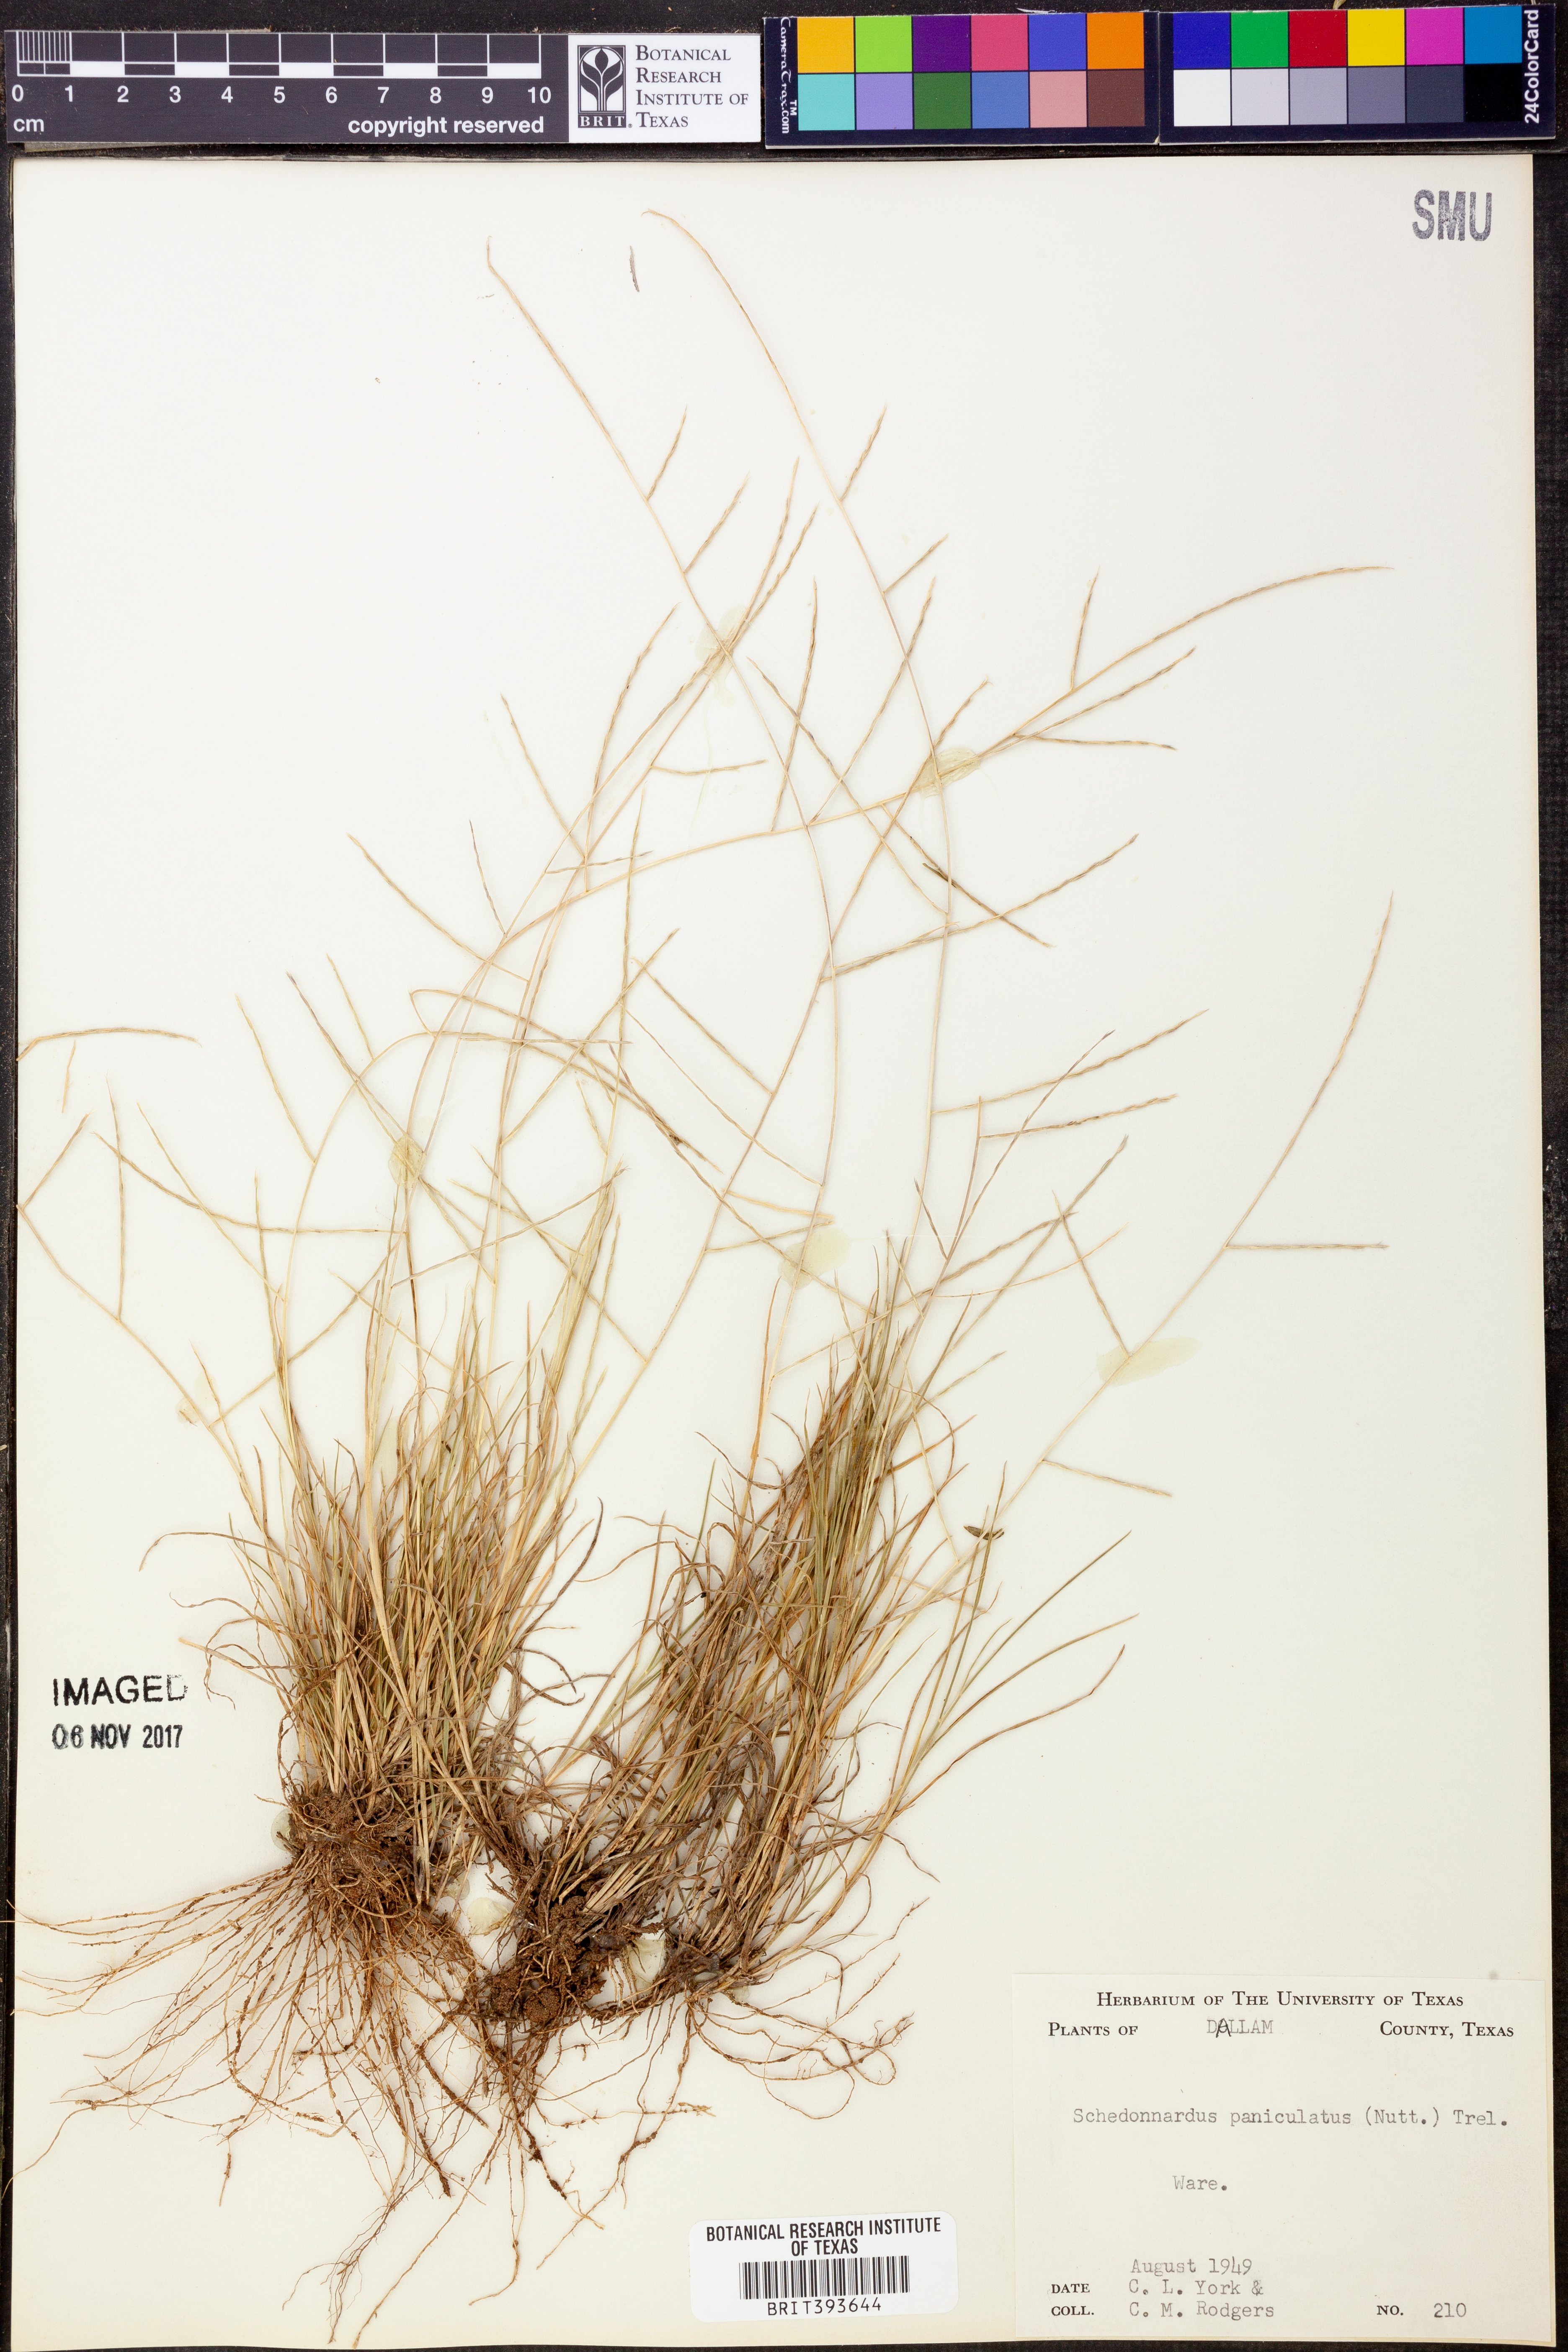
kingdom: Plantae
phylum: Tracheophyta
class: Liliopsida
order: Poales
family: Poaceae
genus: Muhlenbergia
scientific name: Muhlenbergia paniculata
